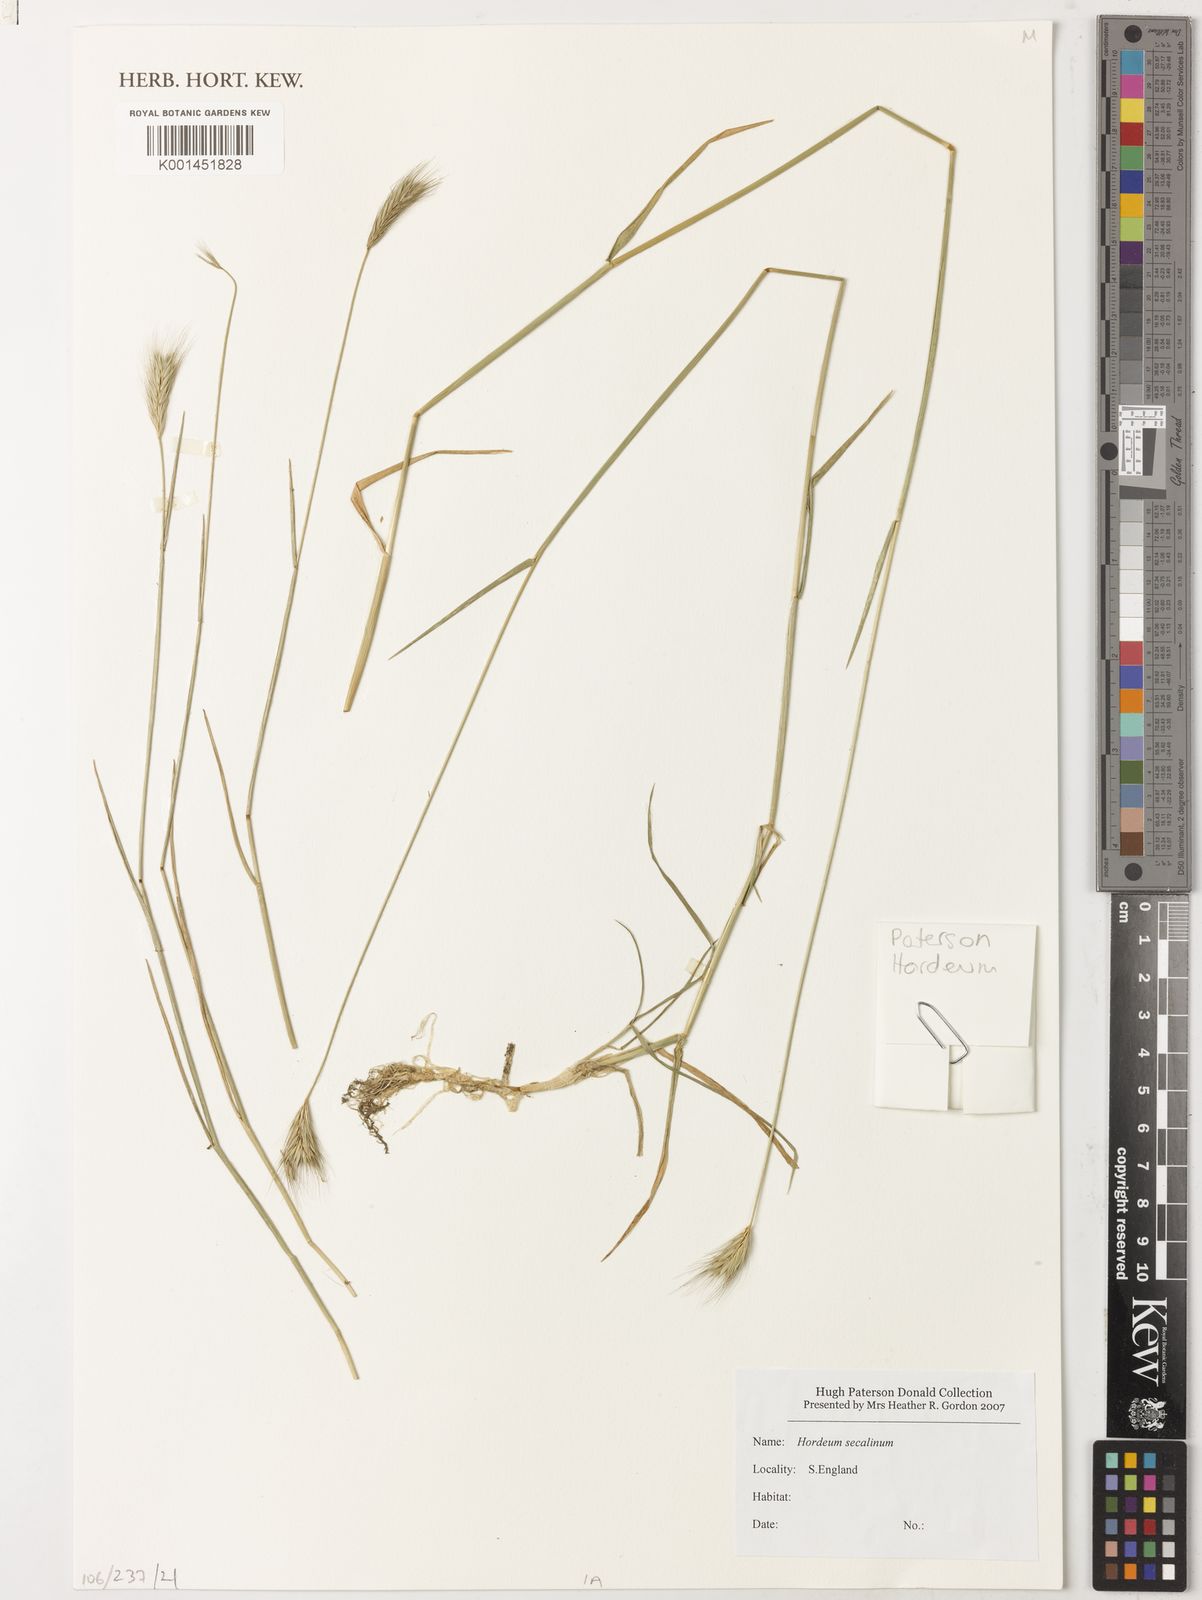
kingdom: Plantae
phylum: Tracheophyta
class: Liliopsida
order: Poales
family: Poaceae
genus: Hordeum
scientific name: Hordeum
